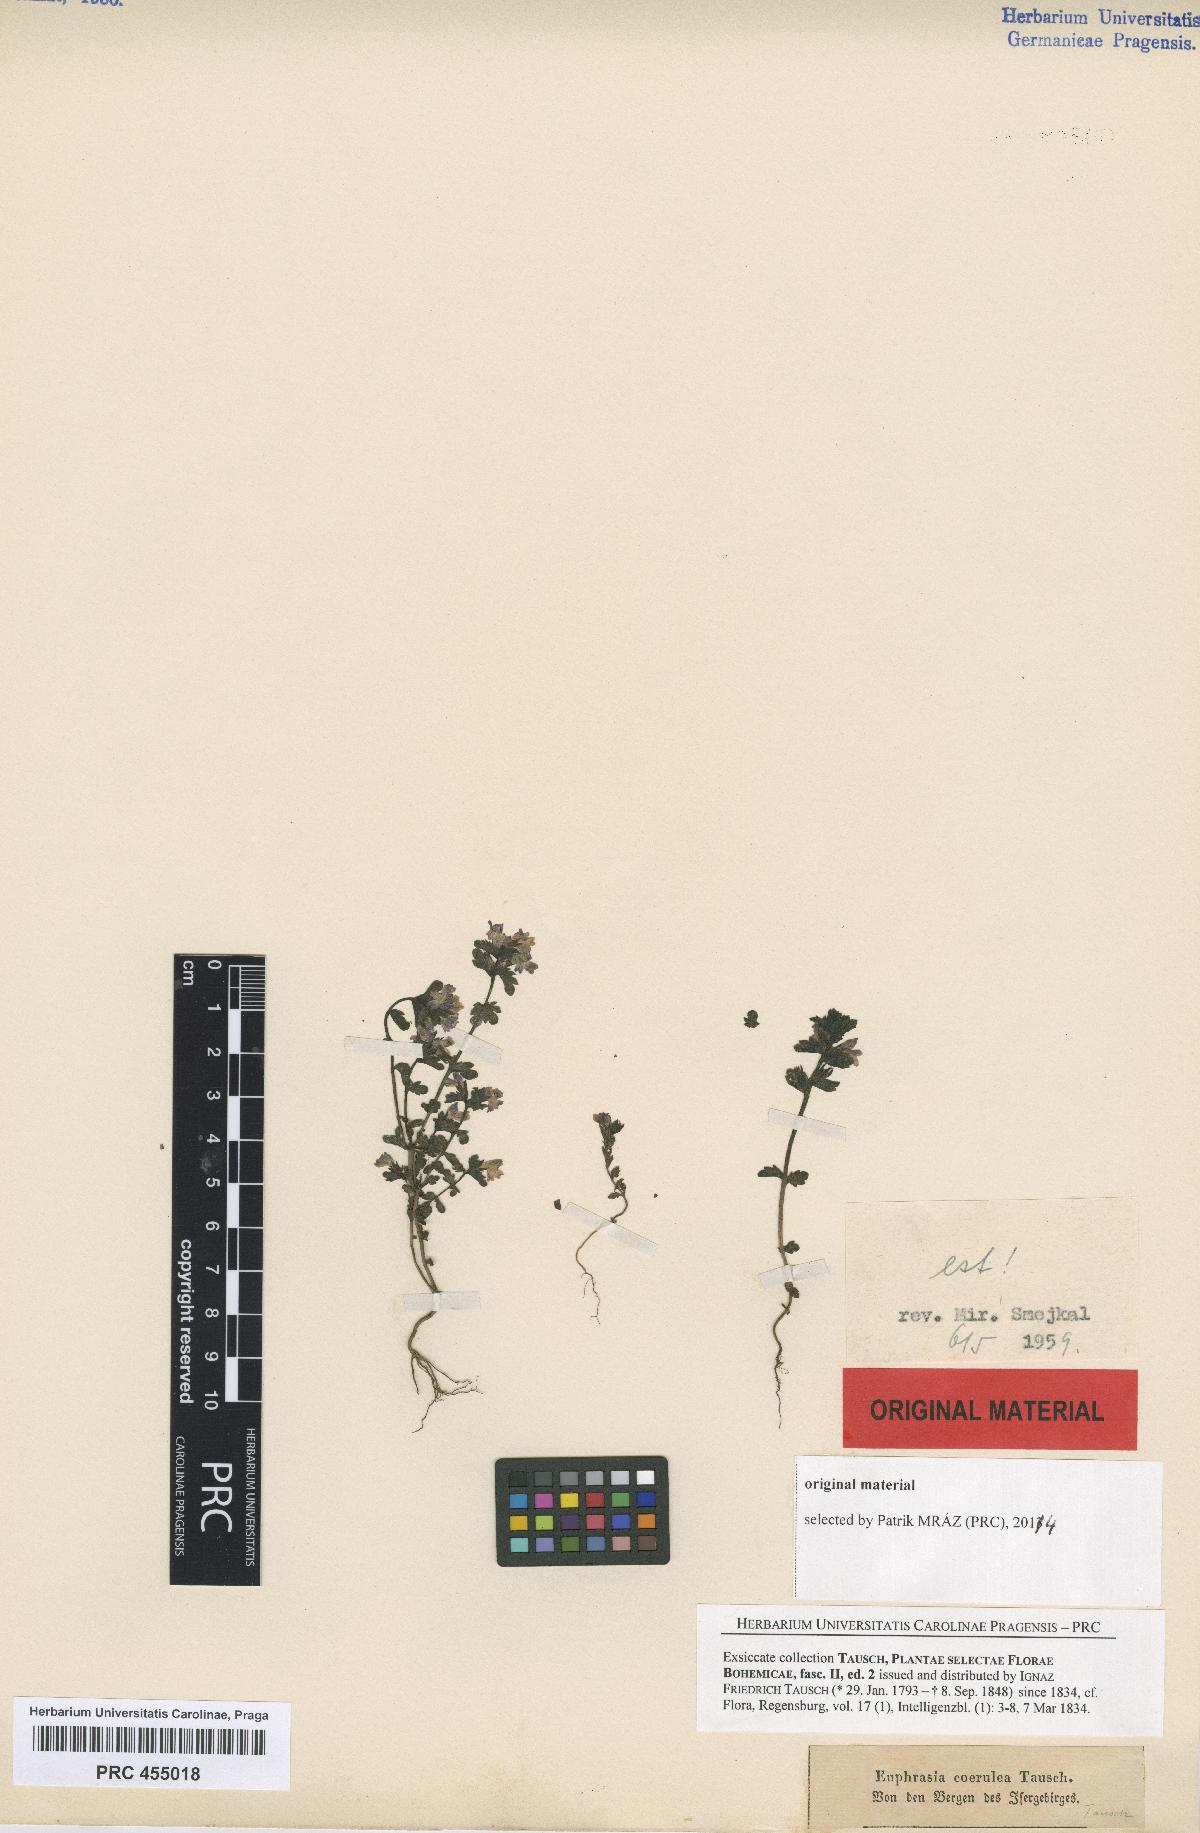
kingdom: Plantae
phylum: Tracheophyta
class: Magnoliopsida
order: Lamiales
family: Orobanchaceae
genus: Euphrasia
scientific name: Euphrasia nemorosa
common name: Common eyebright
